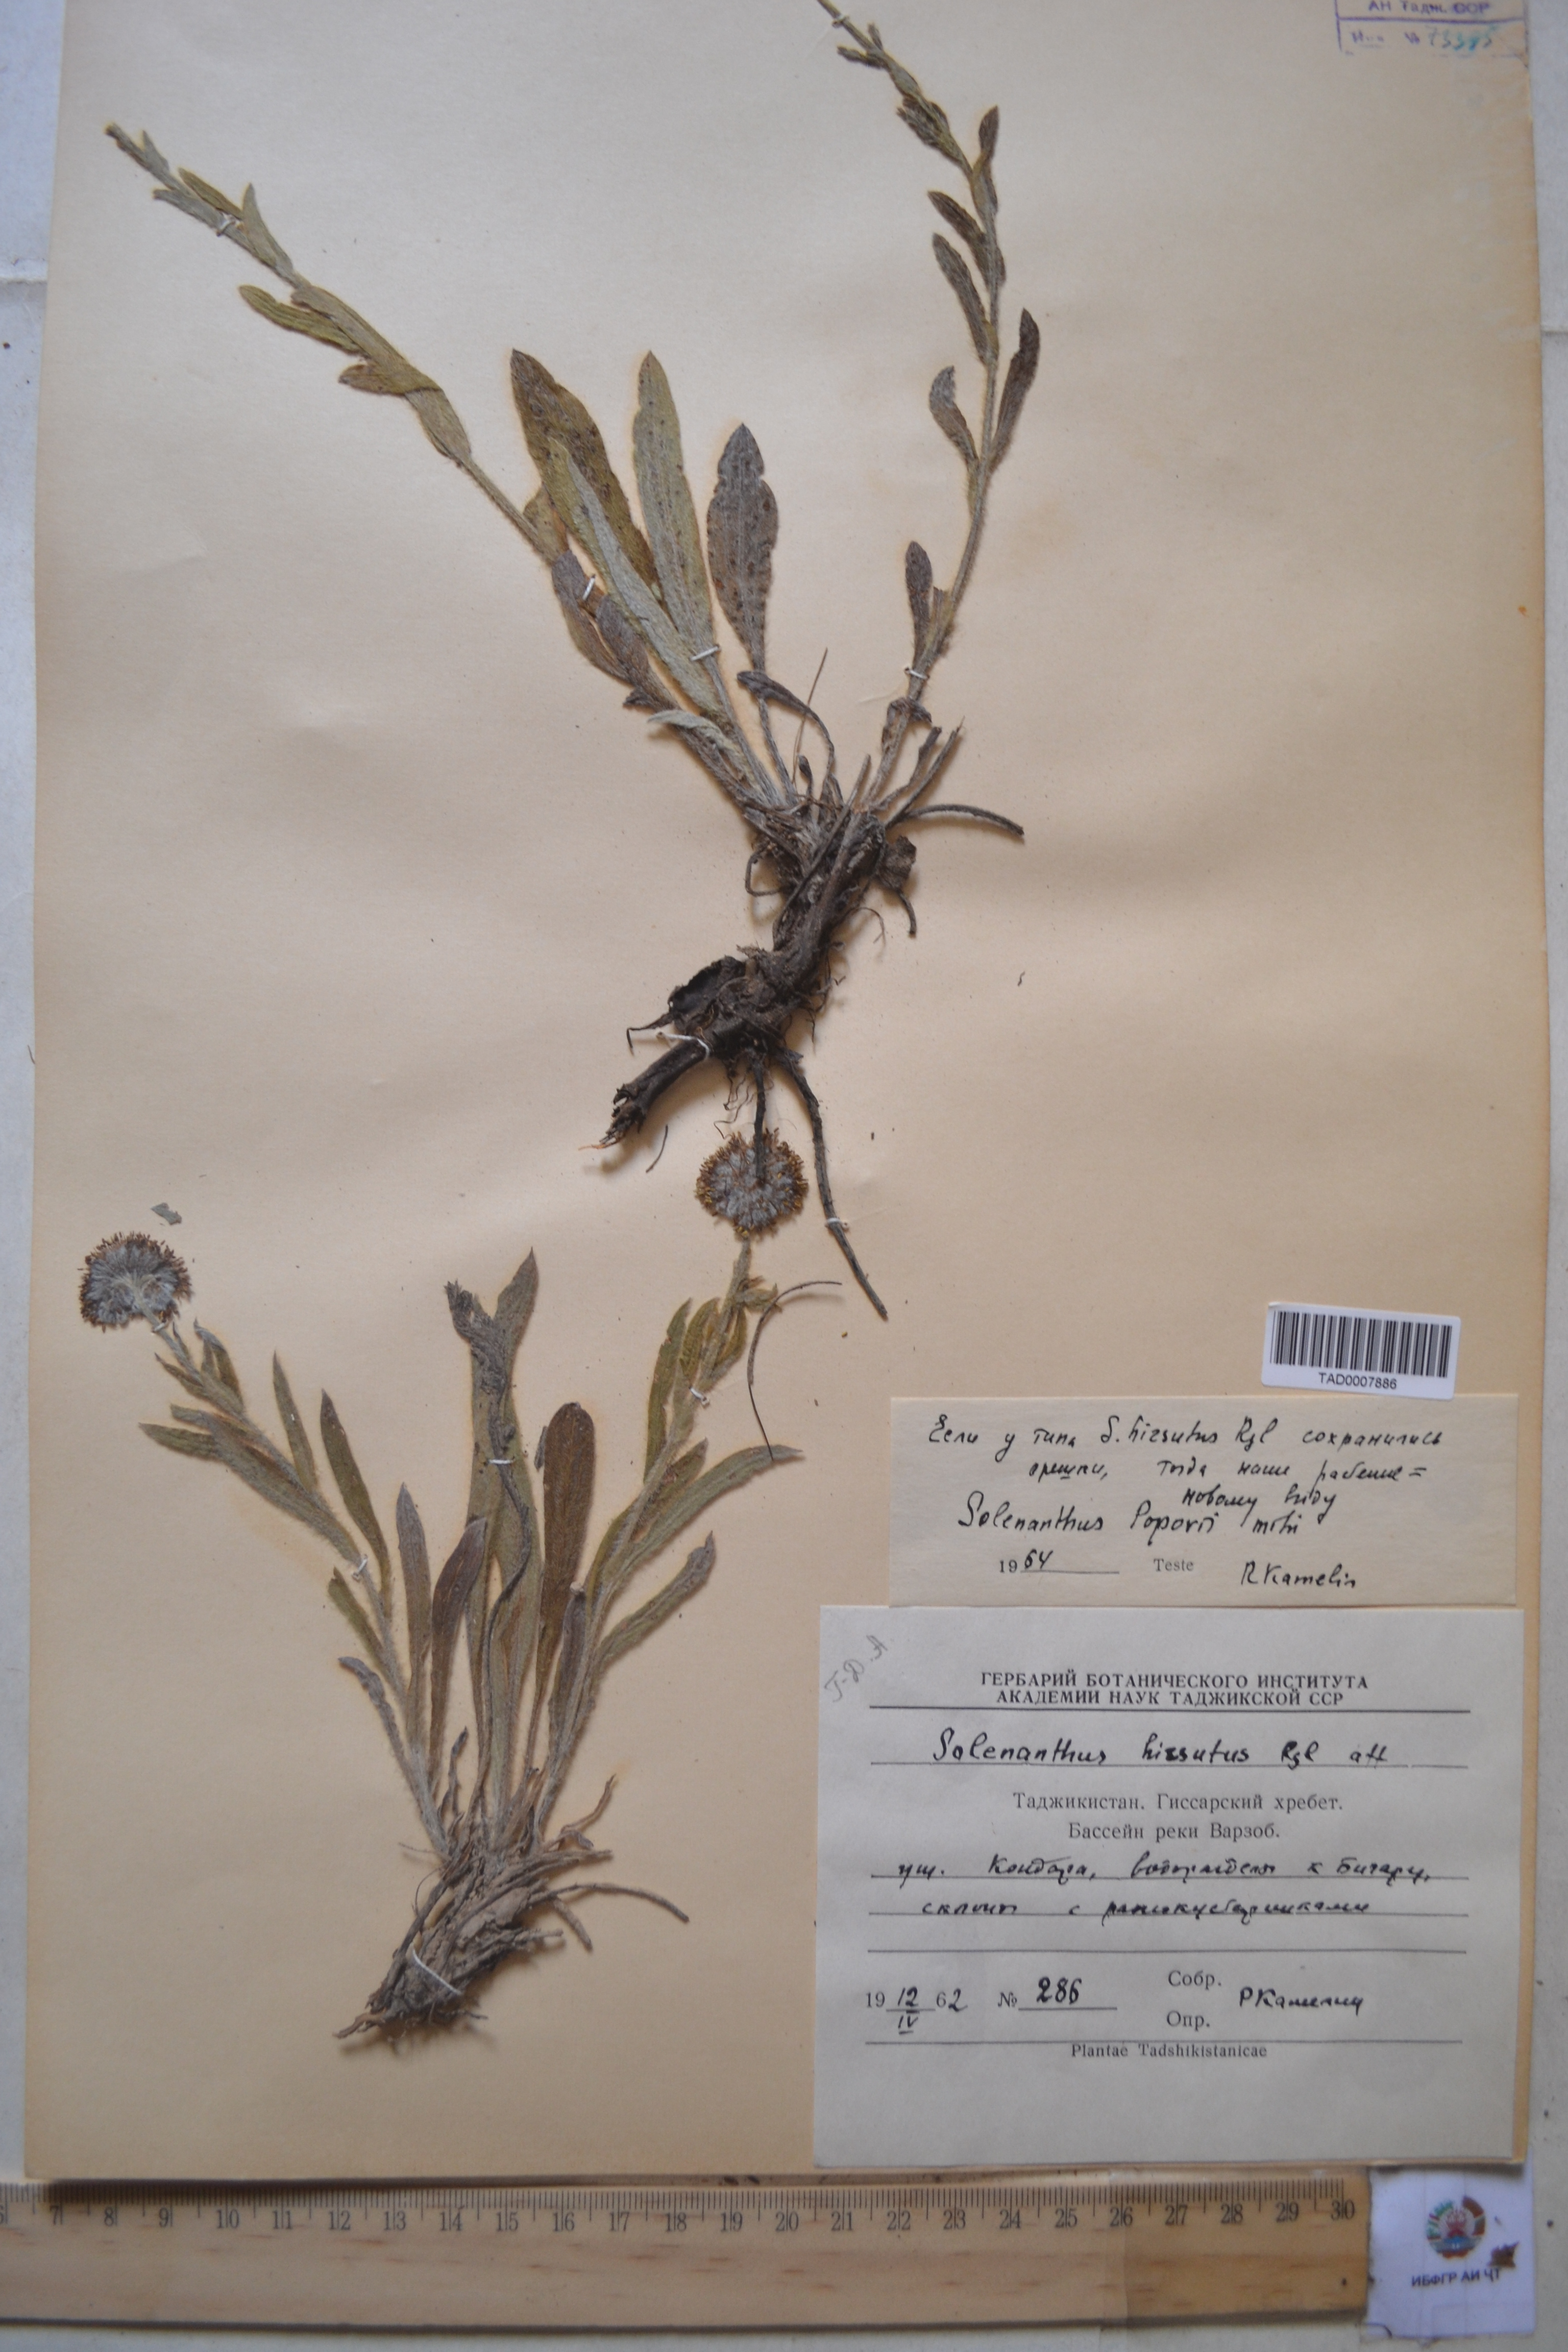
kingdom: Plantae
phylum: Tracheophyta
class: Magnoliopsida
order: Boraginales
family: Boraginaceae
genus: Solenanthus
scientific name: Solenanthus hirsutus
